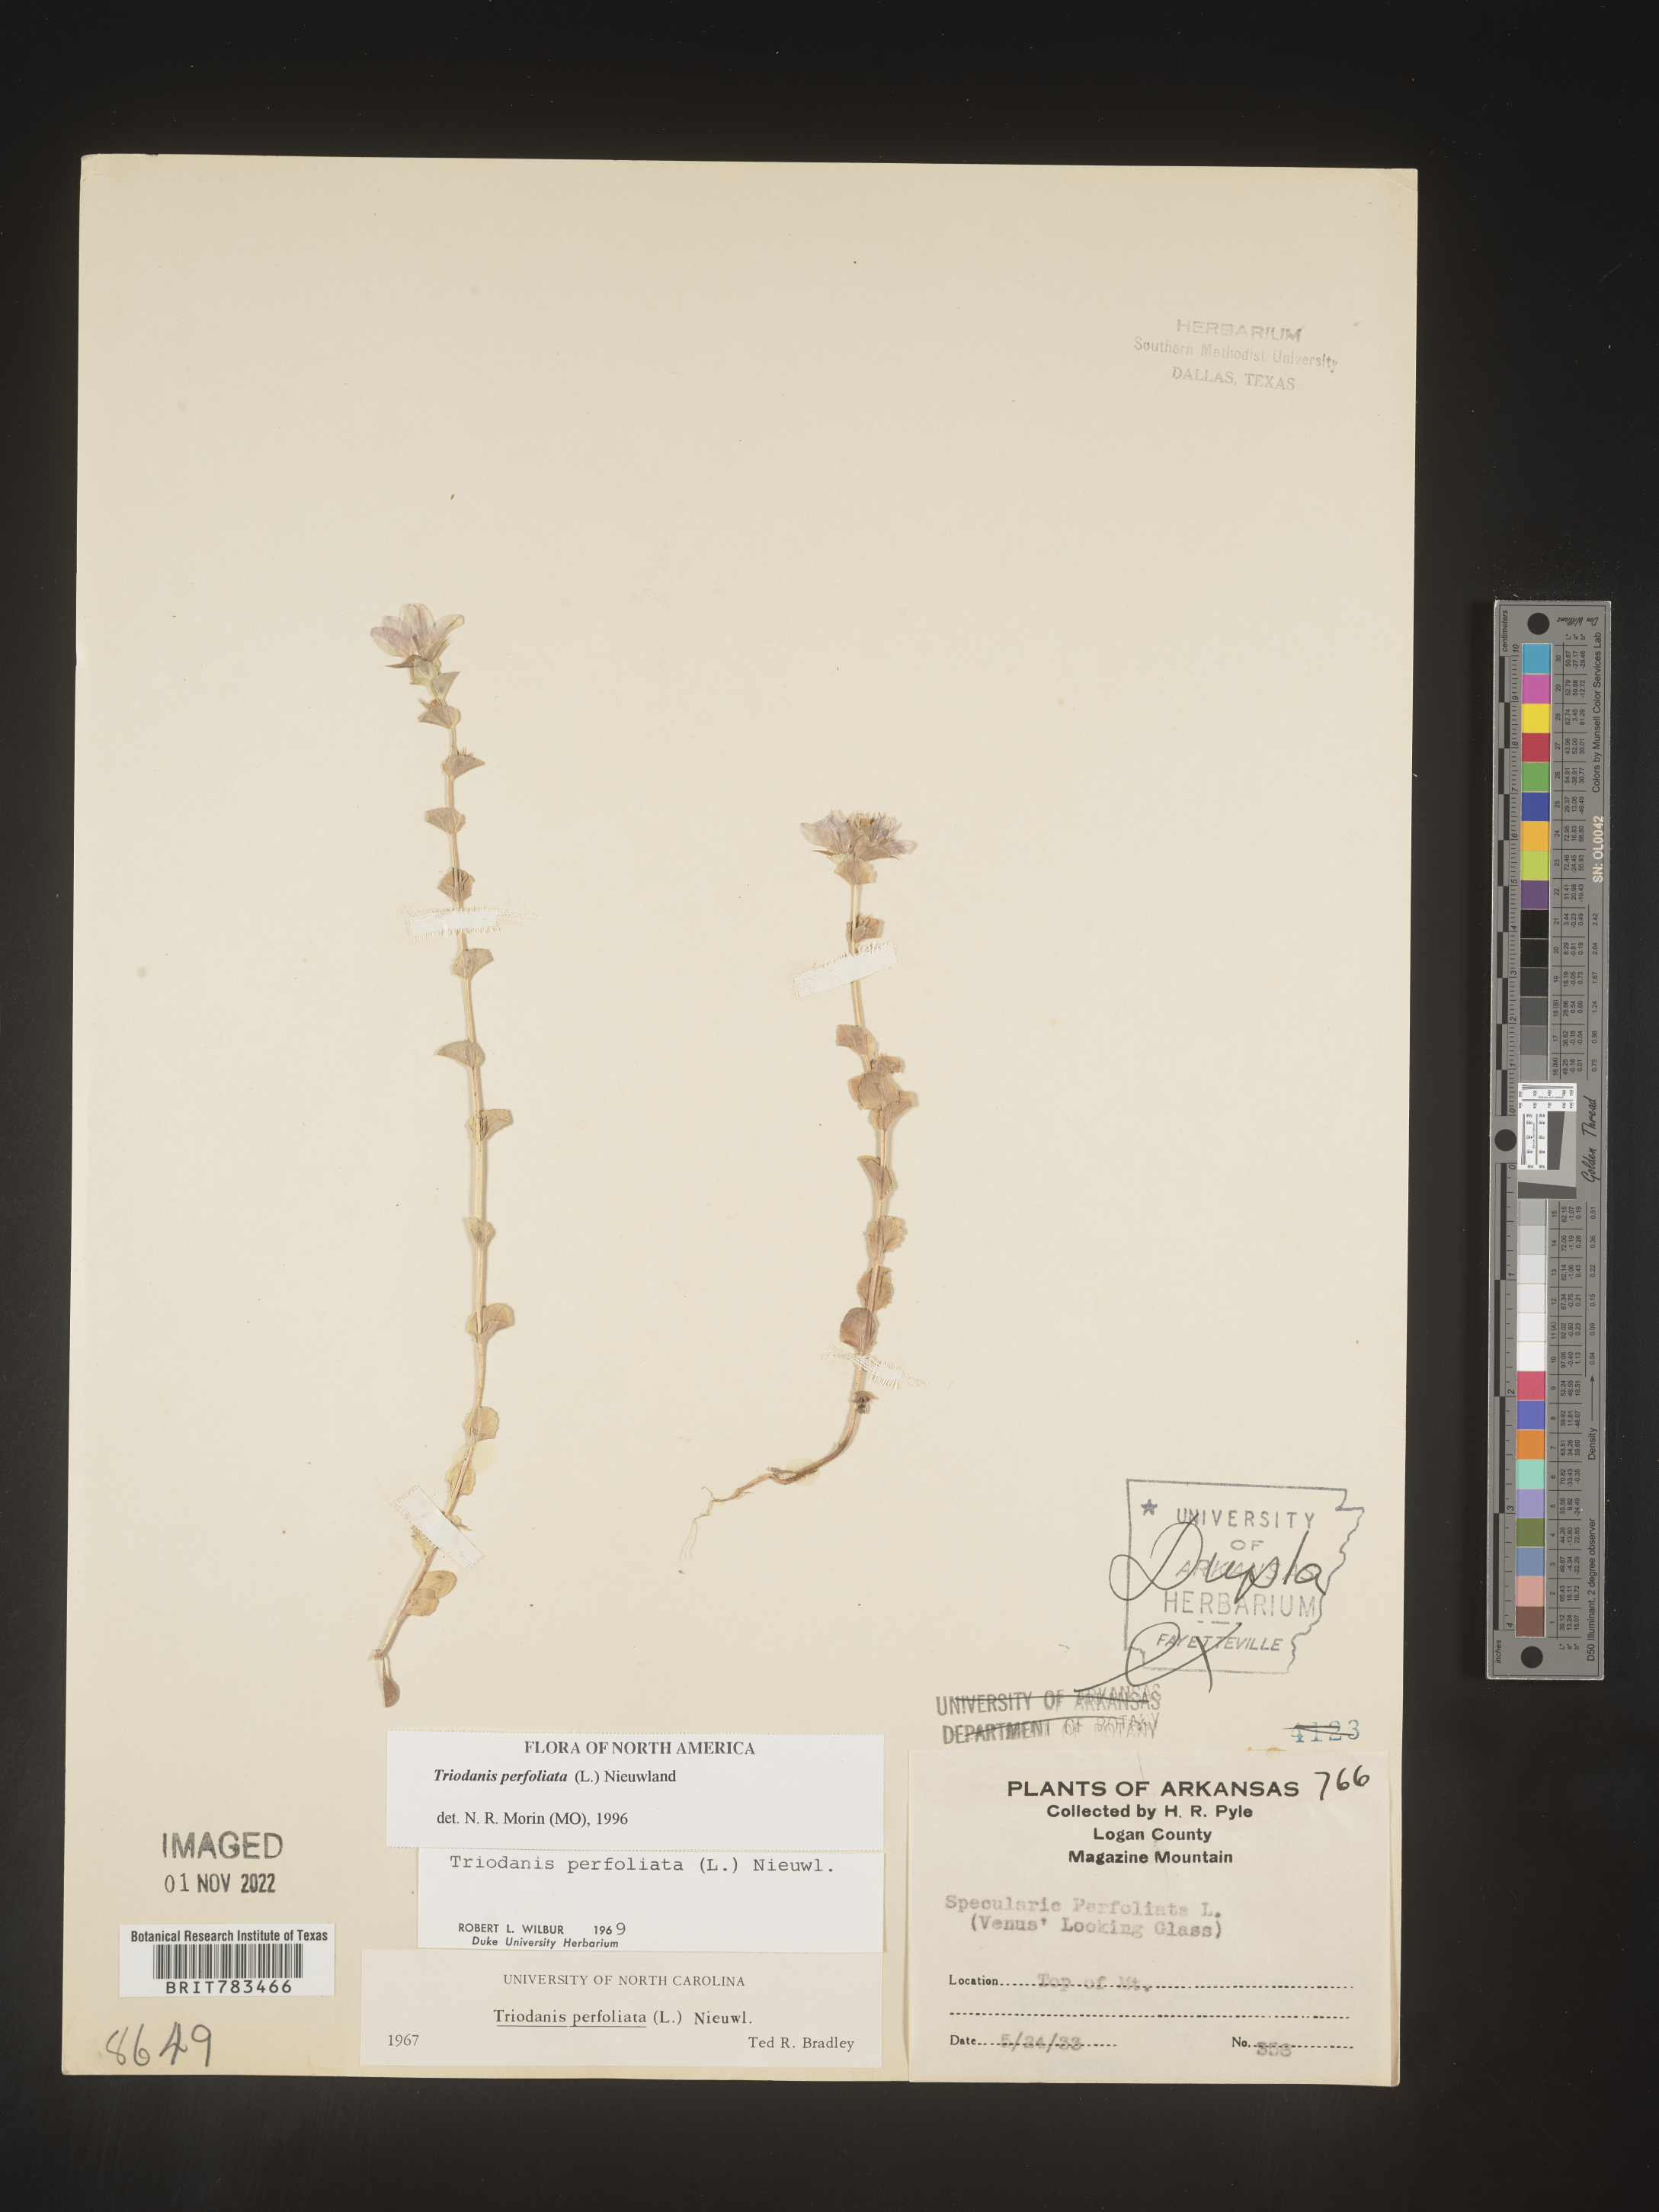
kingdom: Plantae
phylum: Tracheophyta
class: Magnoliopsida
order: Asterales
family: Campanulaceae
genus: Triodanis
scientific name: Triodanis perfoliata
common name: Clasping venus' looking-glass
